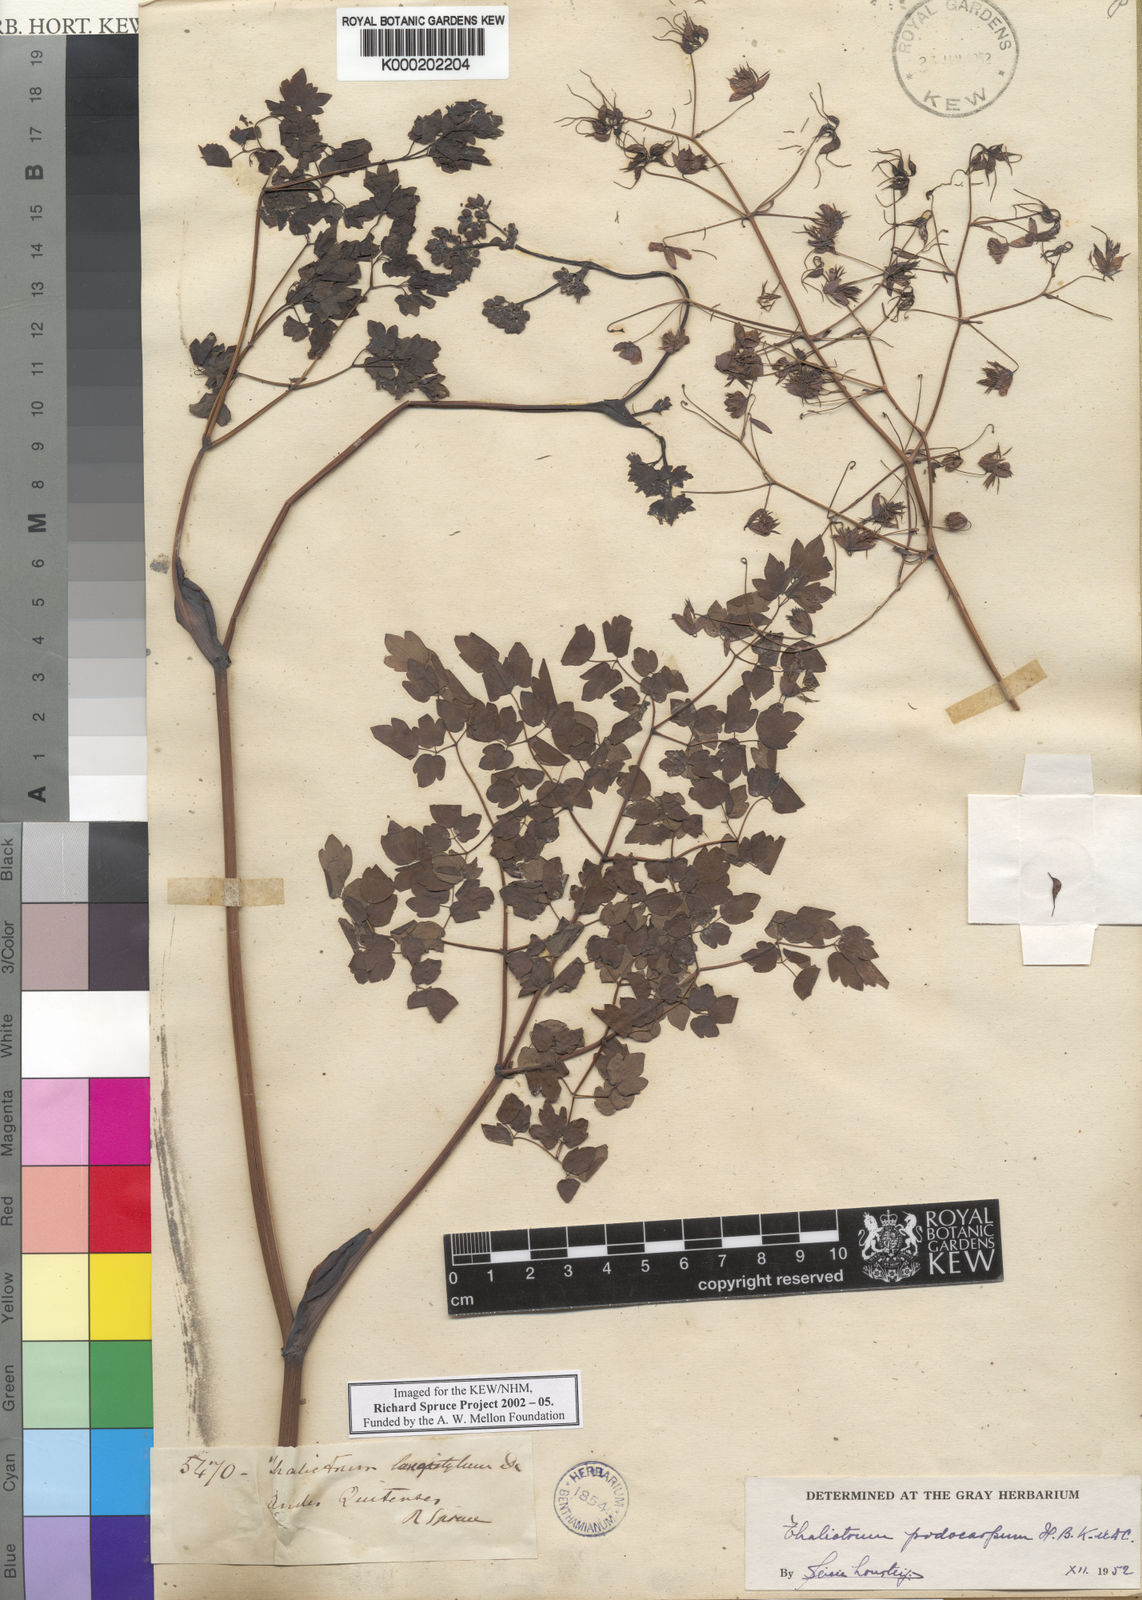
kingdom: Plantae
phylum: Tracheophyta
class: Magnoliopsida
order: Ranunculales
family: Ranunculaceae
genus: Thalictrum
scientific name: Thalictrum podocarpum
